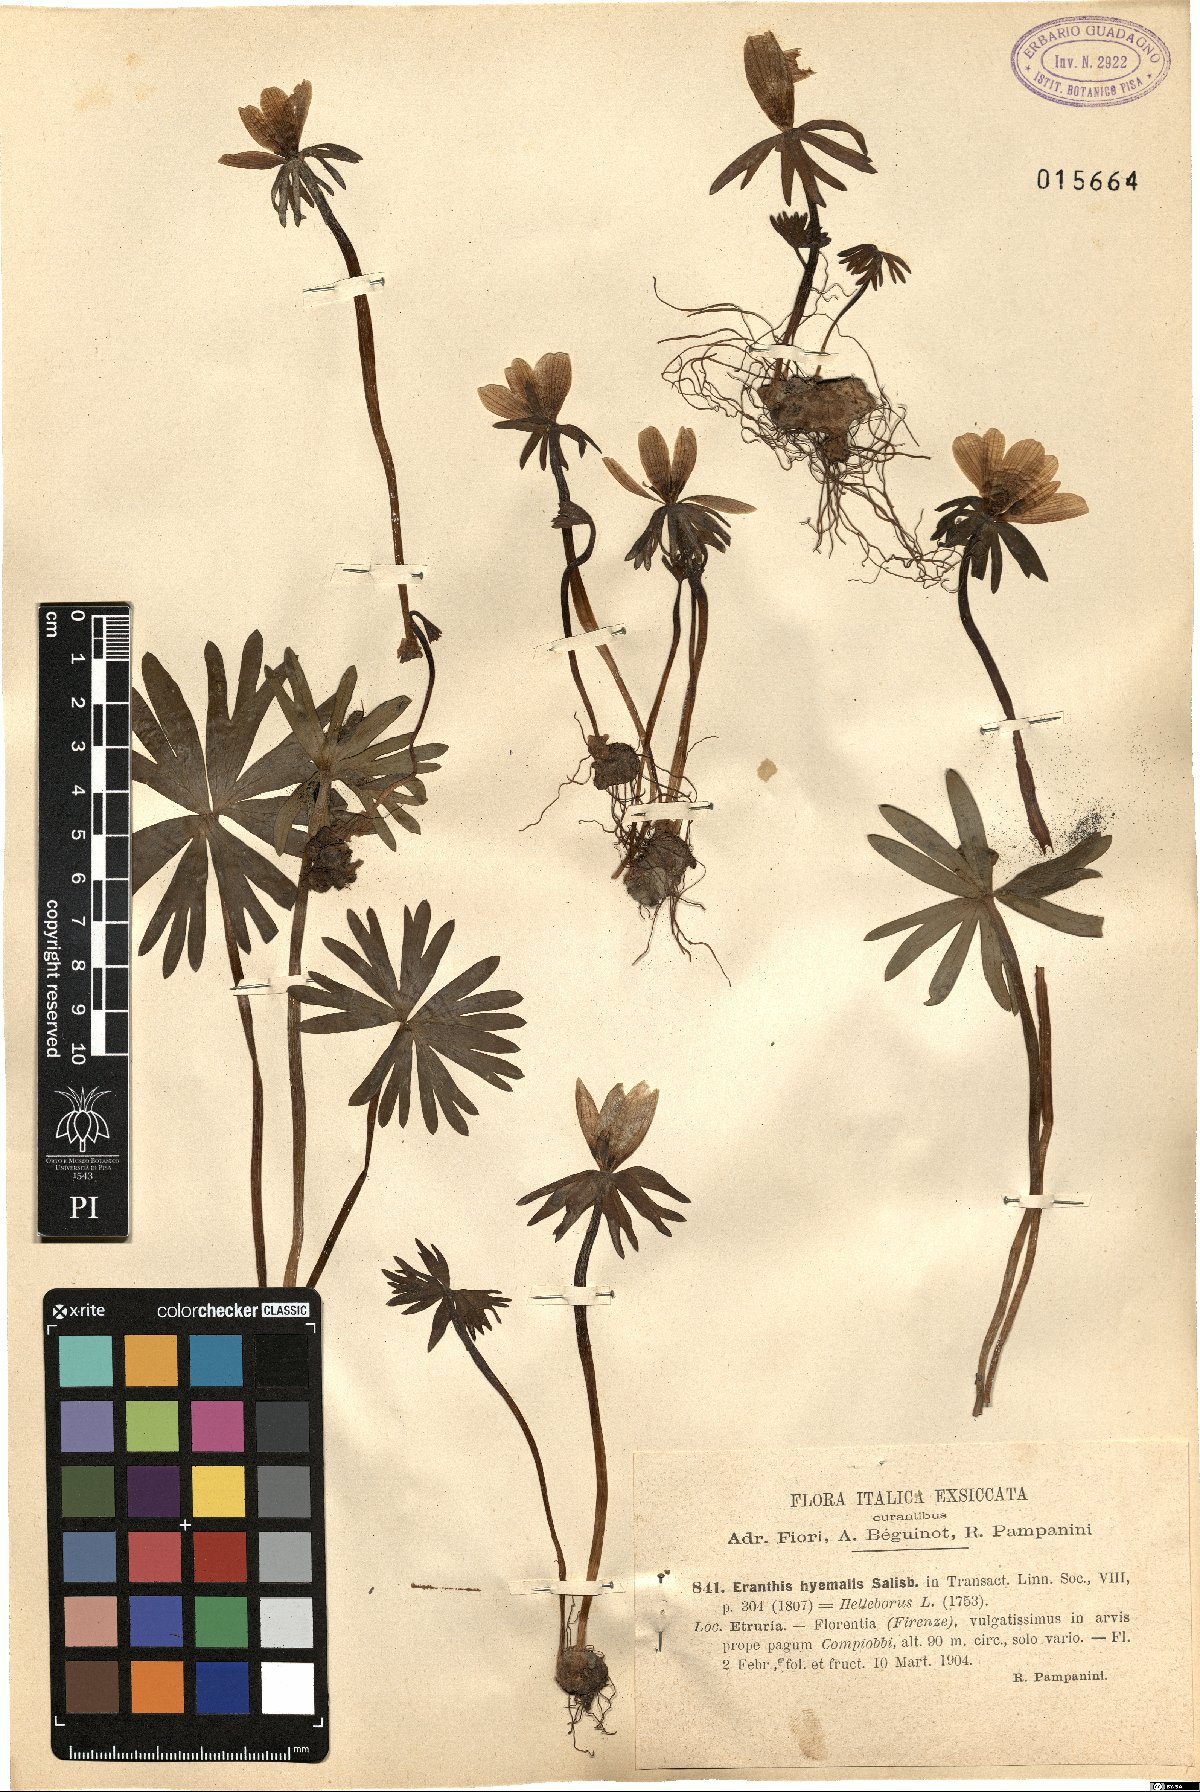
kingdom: Plantae
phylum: Tracheophyta
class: Magnoliopsida
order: Ranunculales
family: Ranunculaceae
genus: Eranthis
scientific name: Eranthis hyemalis
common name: Winter aconite
